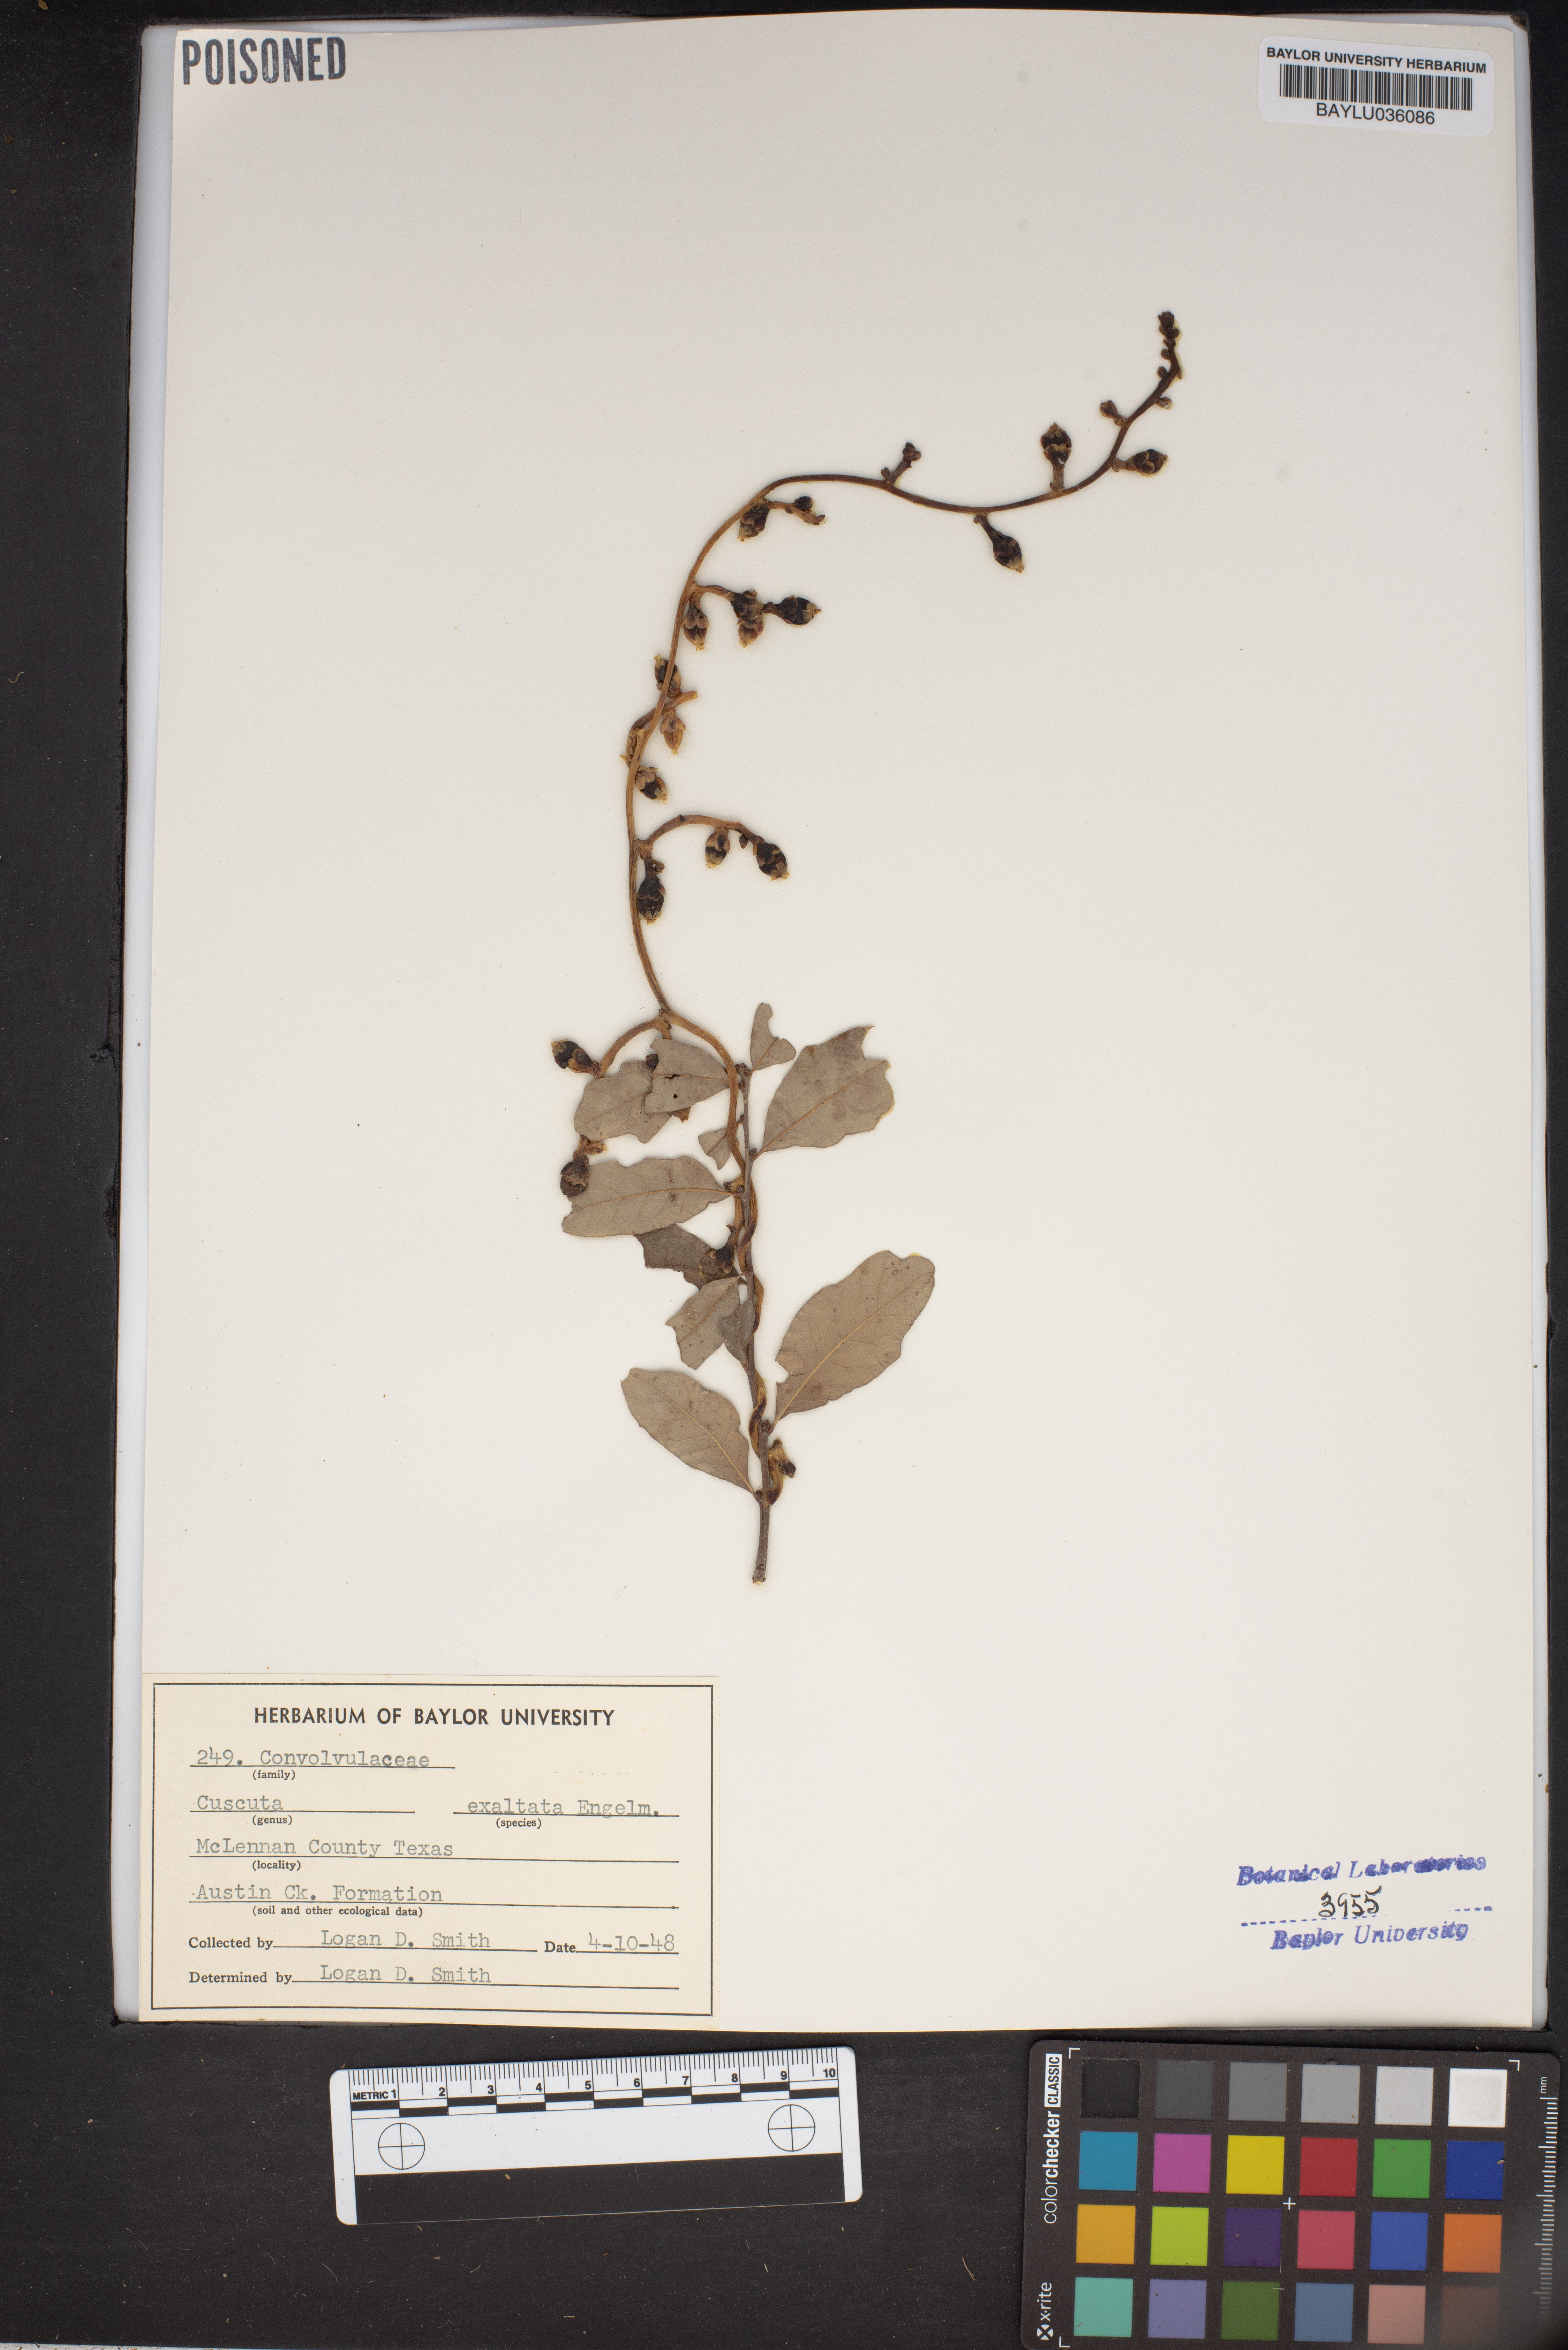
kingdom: Plantae
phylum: Tracheophyta
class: Magnoliopsida
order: Solanales
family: Convolvulaceae
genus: Cuscuta
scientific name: Cuscuta exaltata
